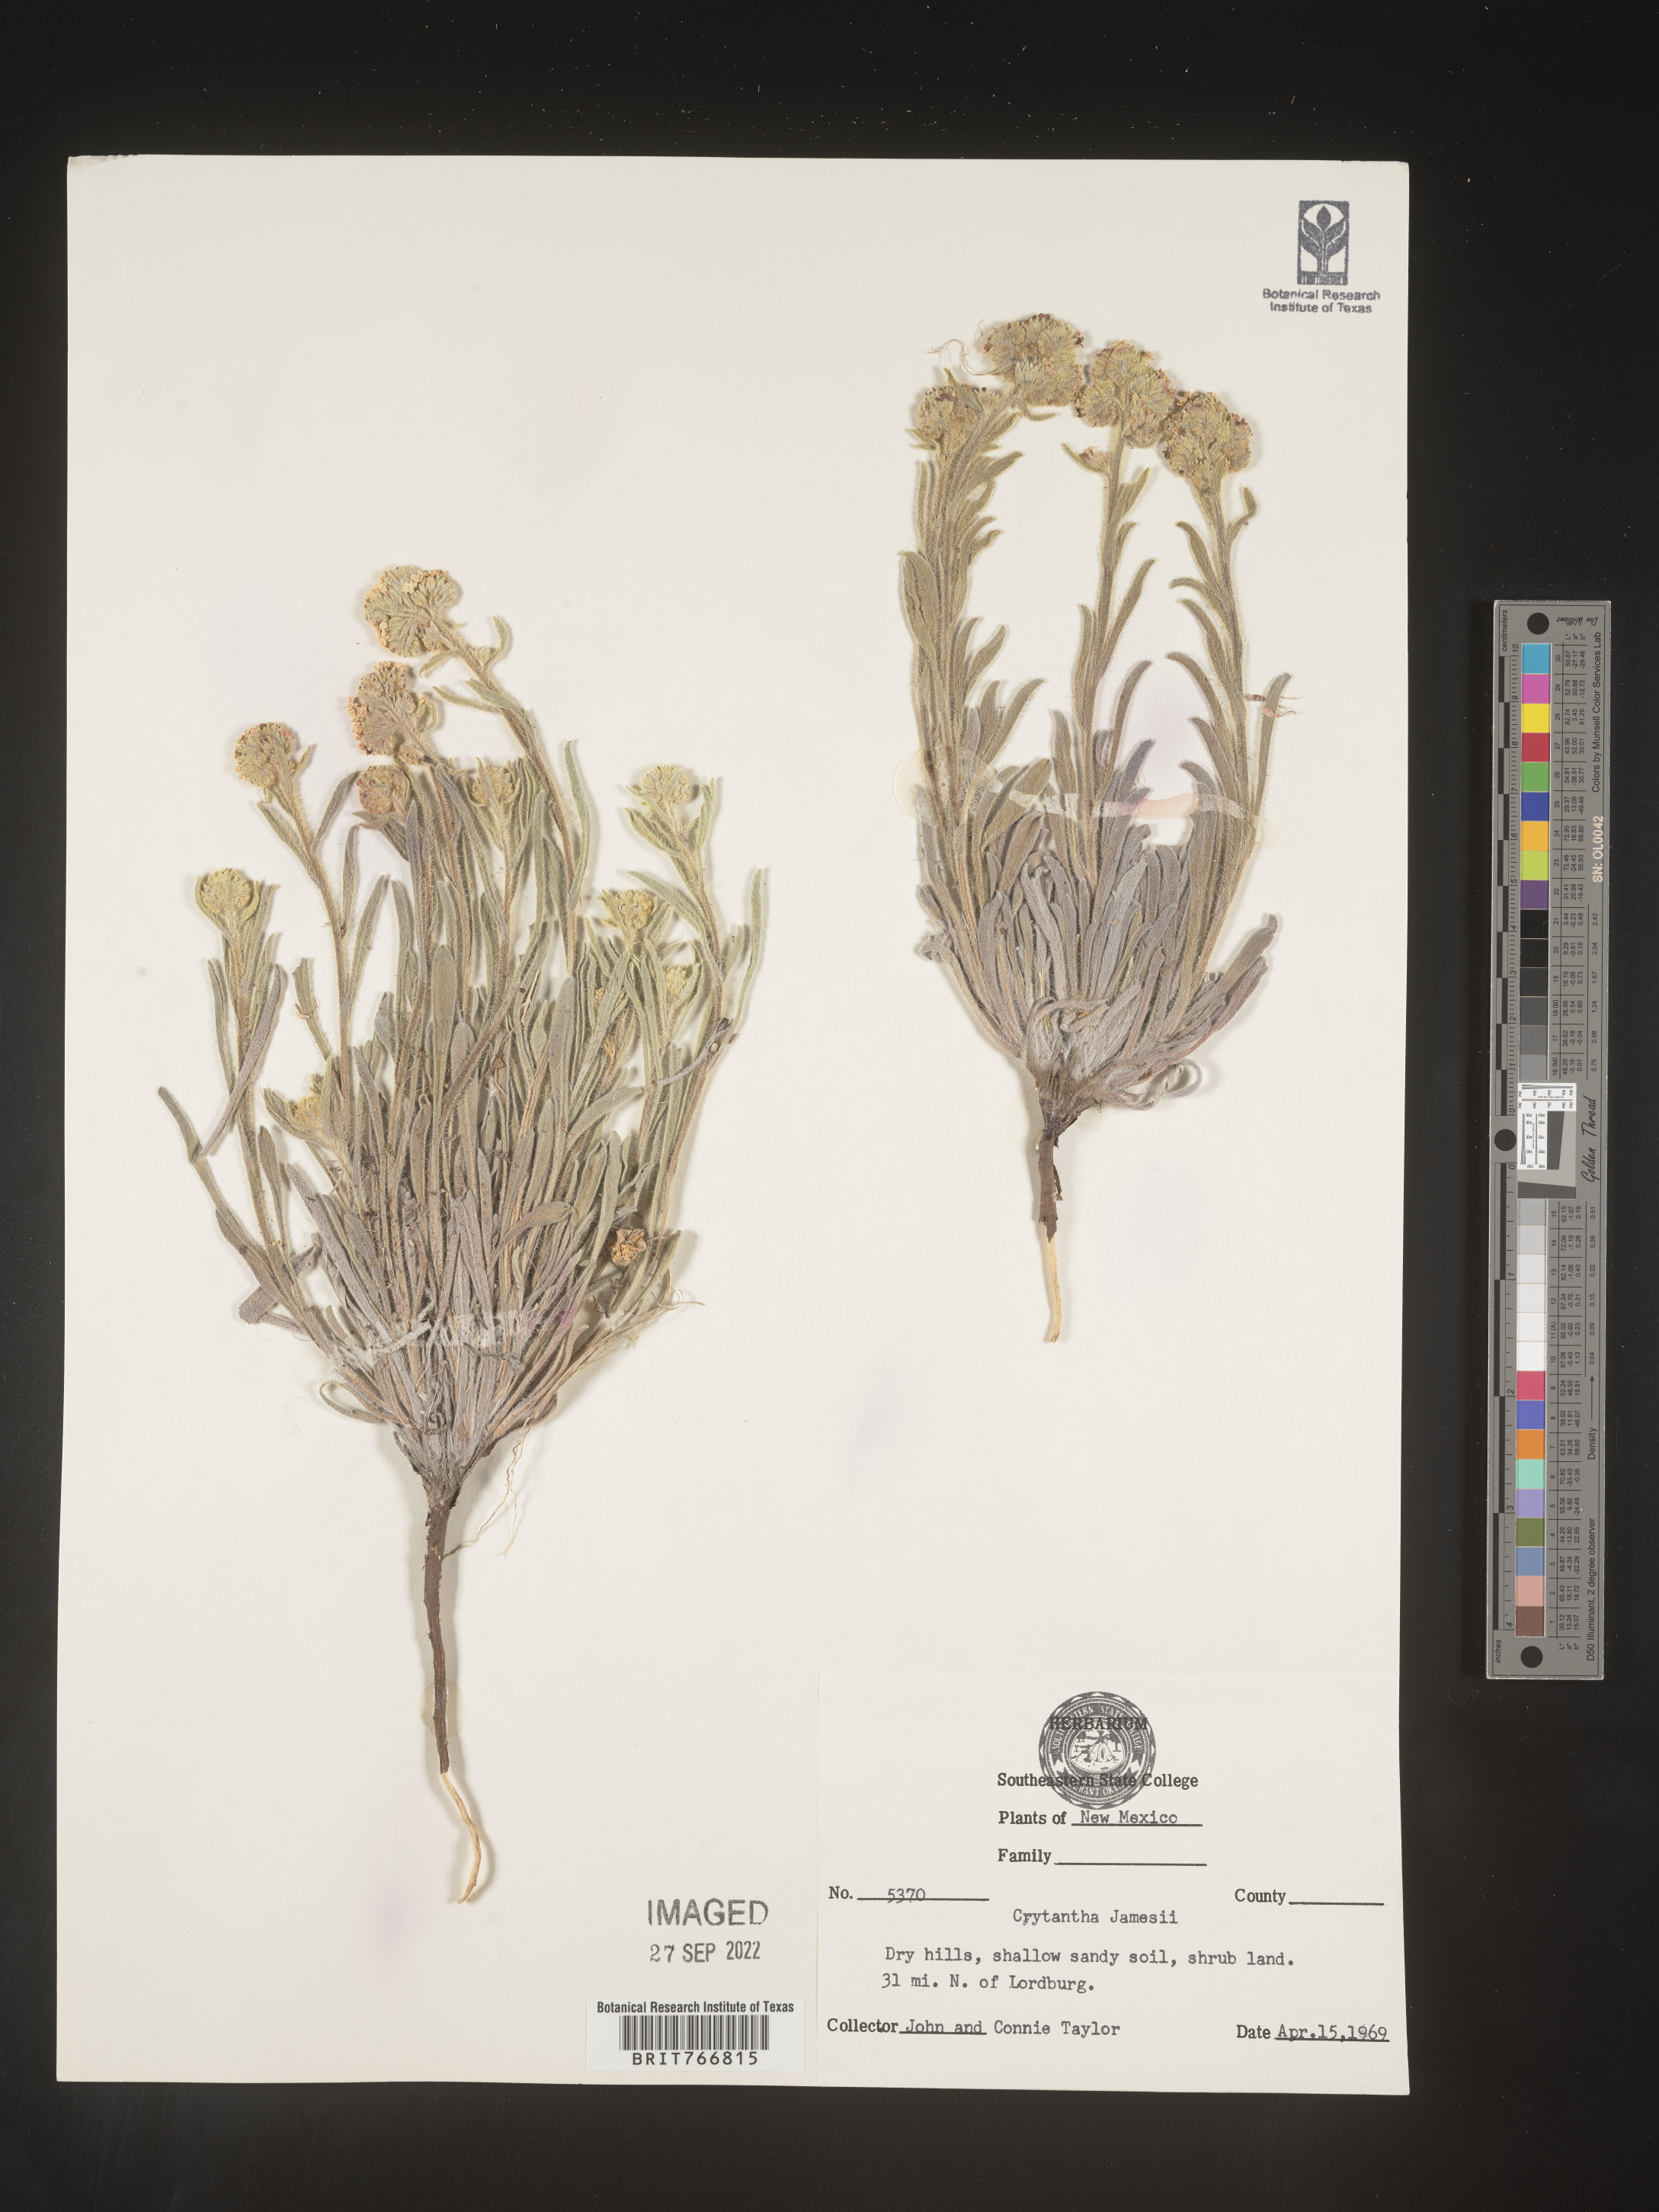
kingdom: Plantae
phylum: Tracheophyta
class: Magnoliopsida
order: Boraginales
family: Boraginaceae
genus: Oreocarya
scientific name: Oreocarya suffruticosa
